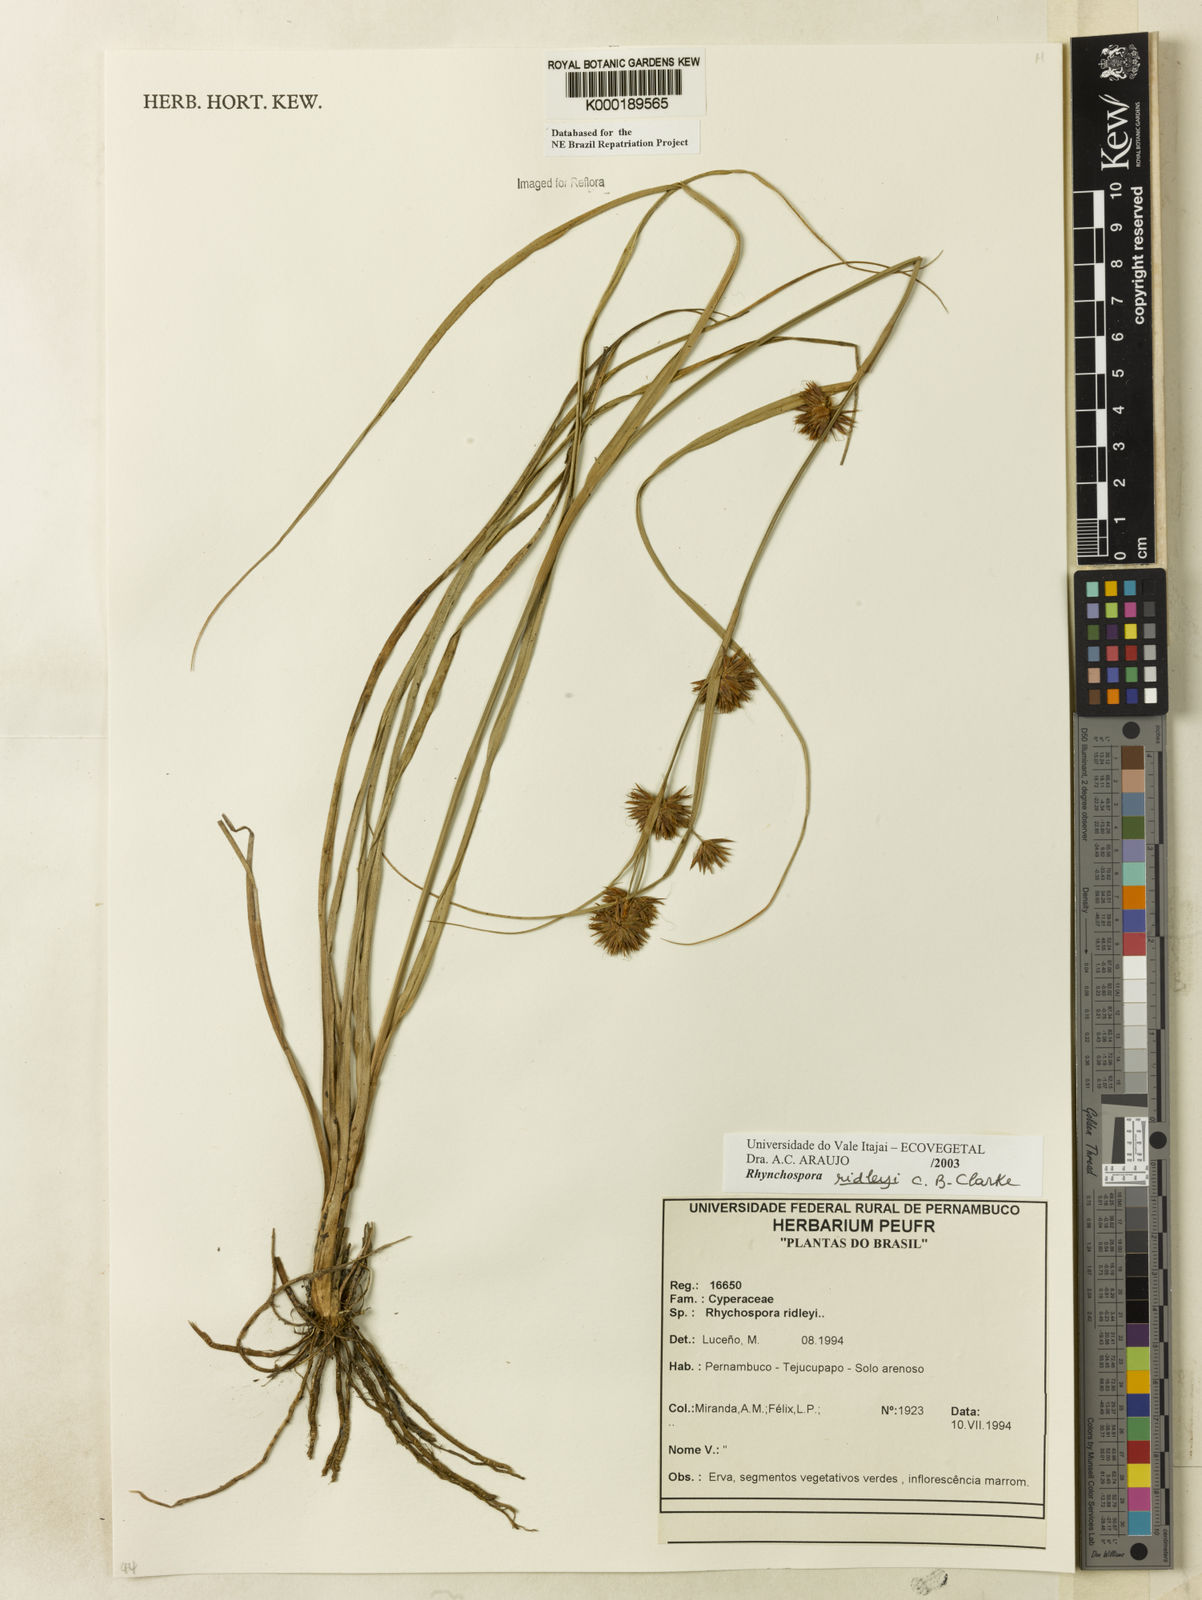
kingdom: Plantae
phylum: Tracheophyta
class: Liliopsida
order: Poales
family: Cyperaceae
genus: Rhynchospora
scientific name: Rhynchospora ridleyi
